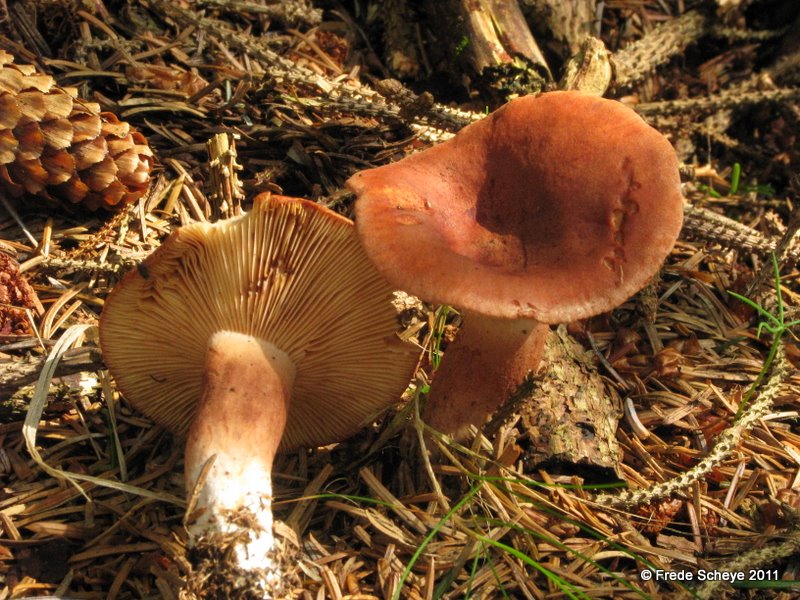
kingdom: Fungi
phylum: Basidiomycota
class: Agaricomycetes
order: Russulales
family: Russulaceae
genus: Lactarius
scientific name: Lactarius rufus
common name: rødbrun mælkehat
